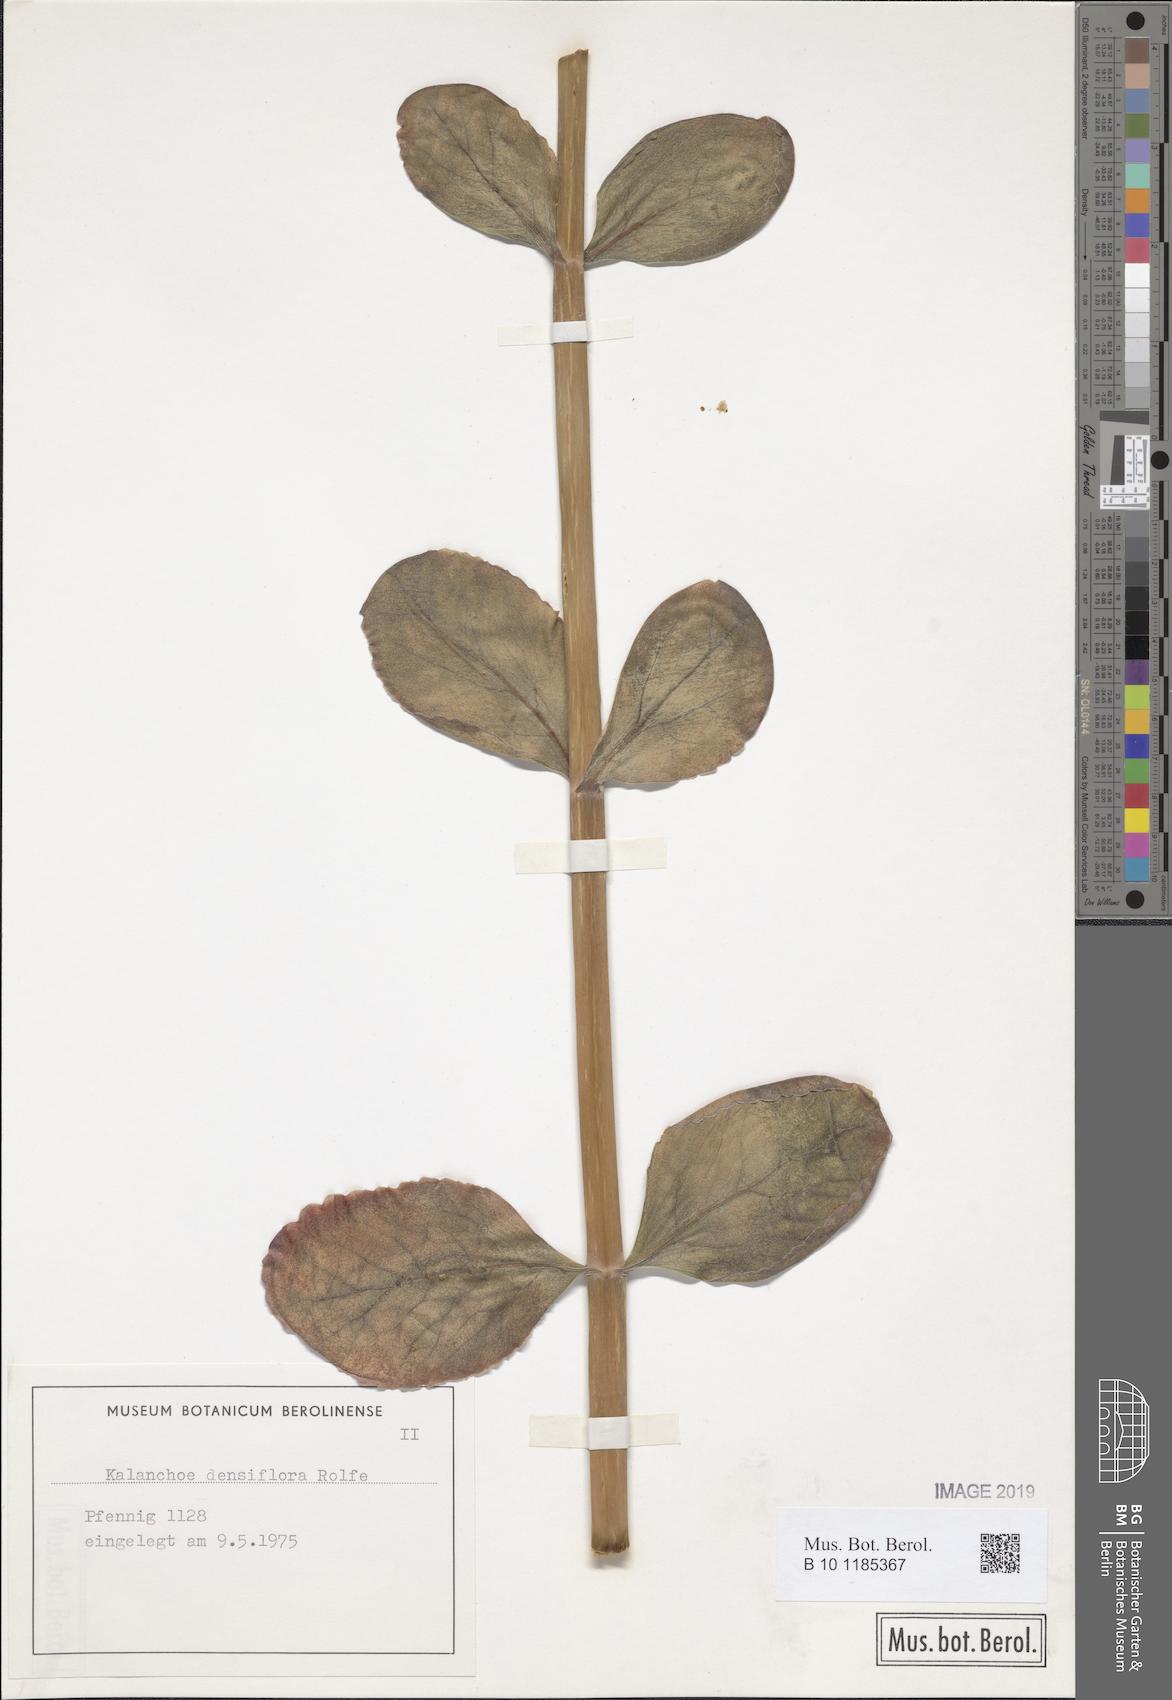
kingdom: Plantae
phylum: Tracheophyta
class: Magnoliopsida
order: Saxifragales
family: Crassulaceae
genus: Kalanchoe
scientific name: Kalanchoe densiflora
